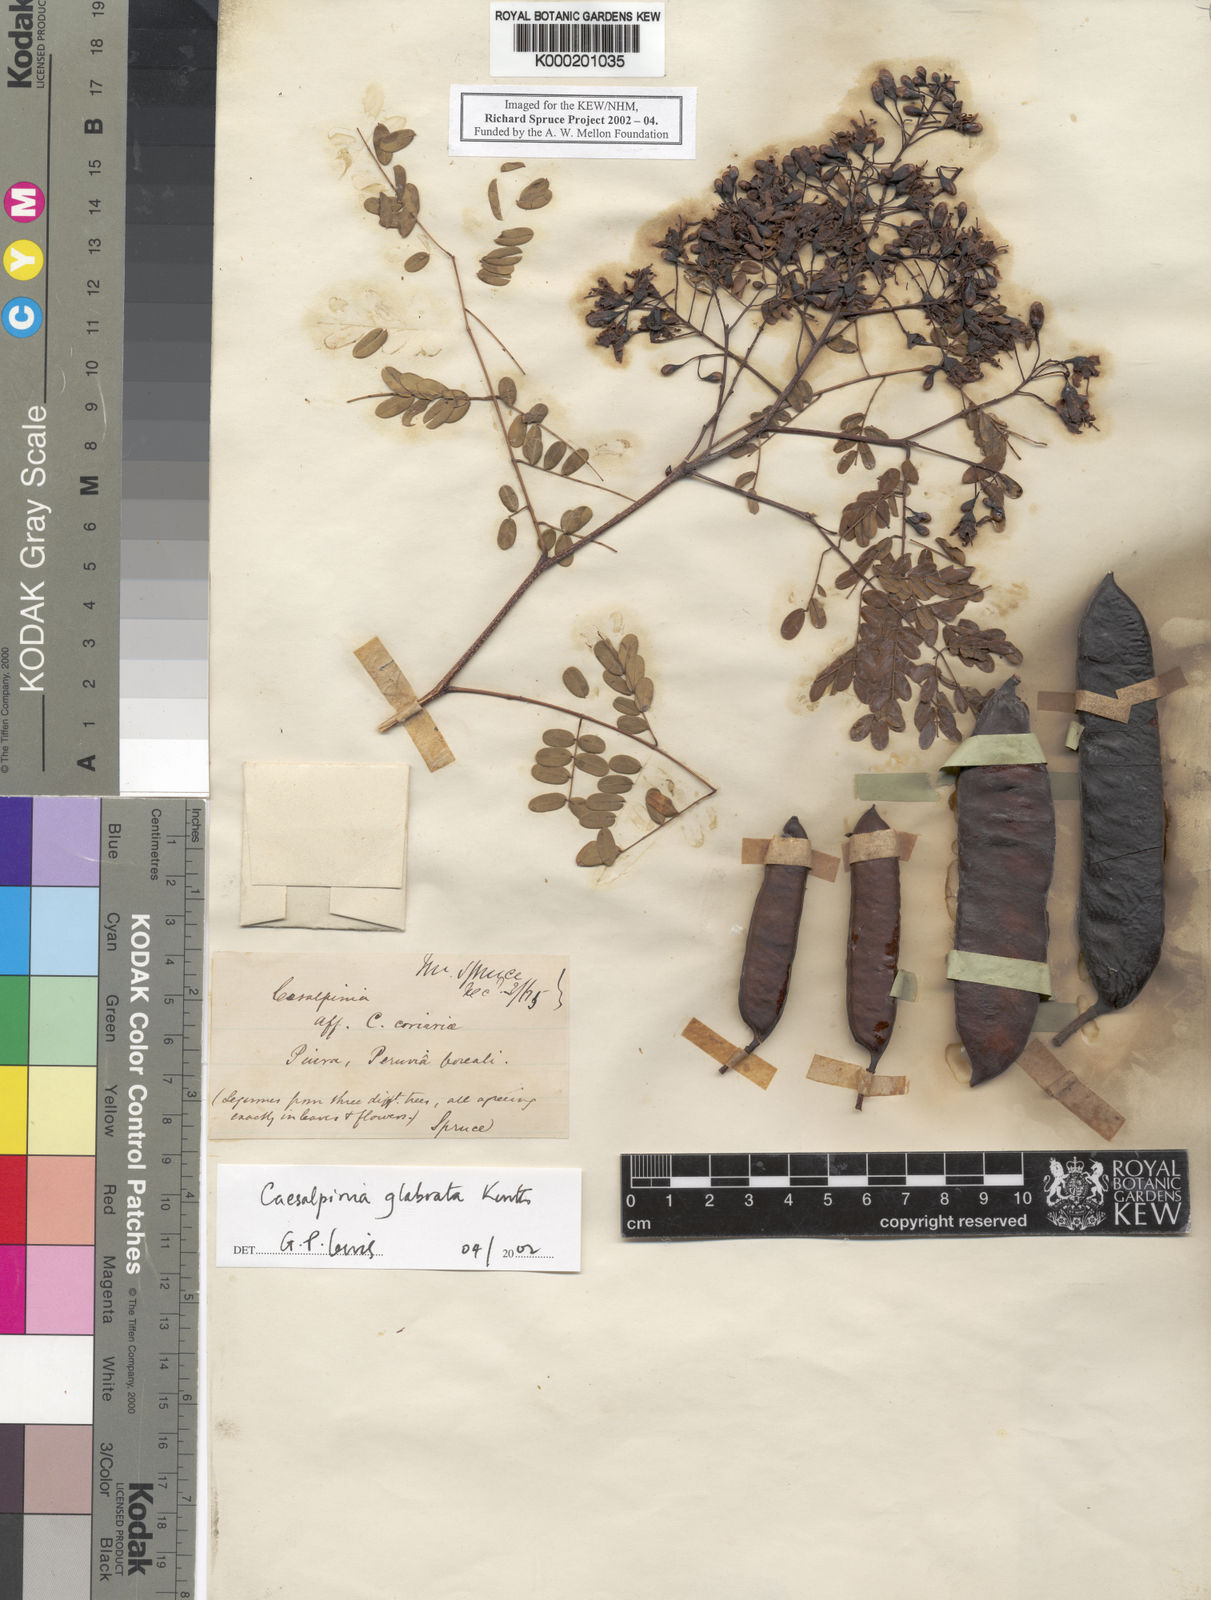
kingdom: Plantae
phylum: Tracheophyta
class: Magnoliopsida
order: Fabales
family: Fabaceae
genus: Libidibia
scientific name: Libidibia glabrata
